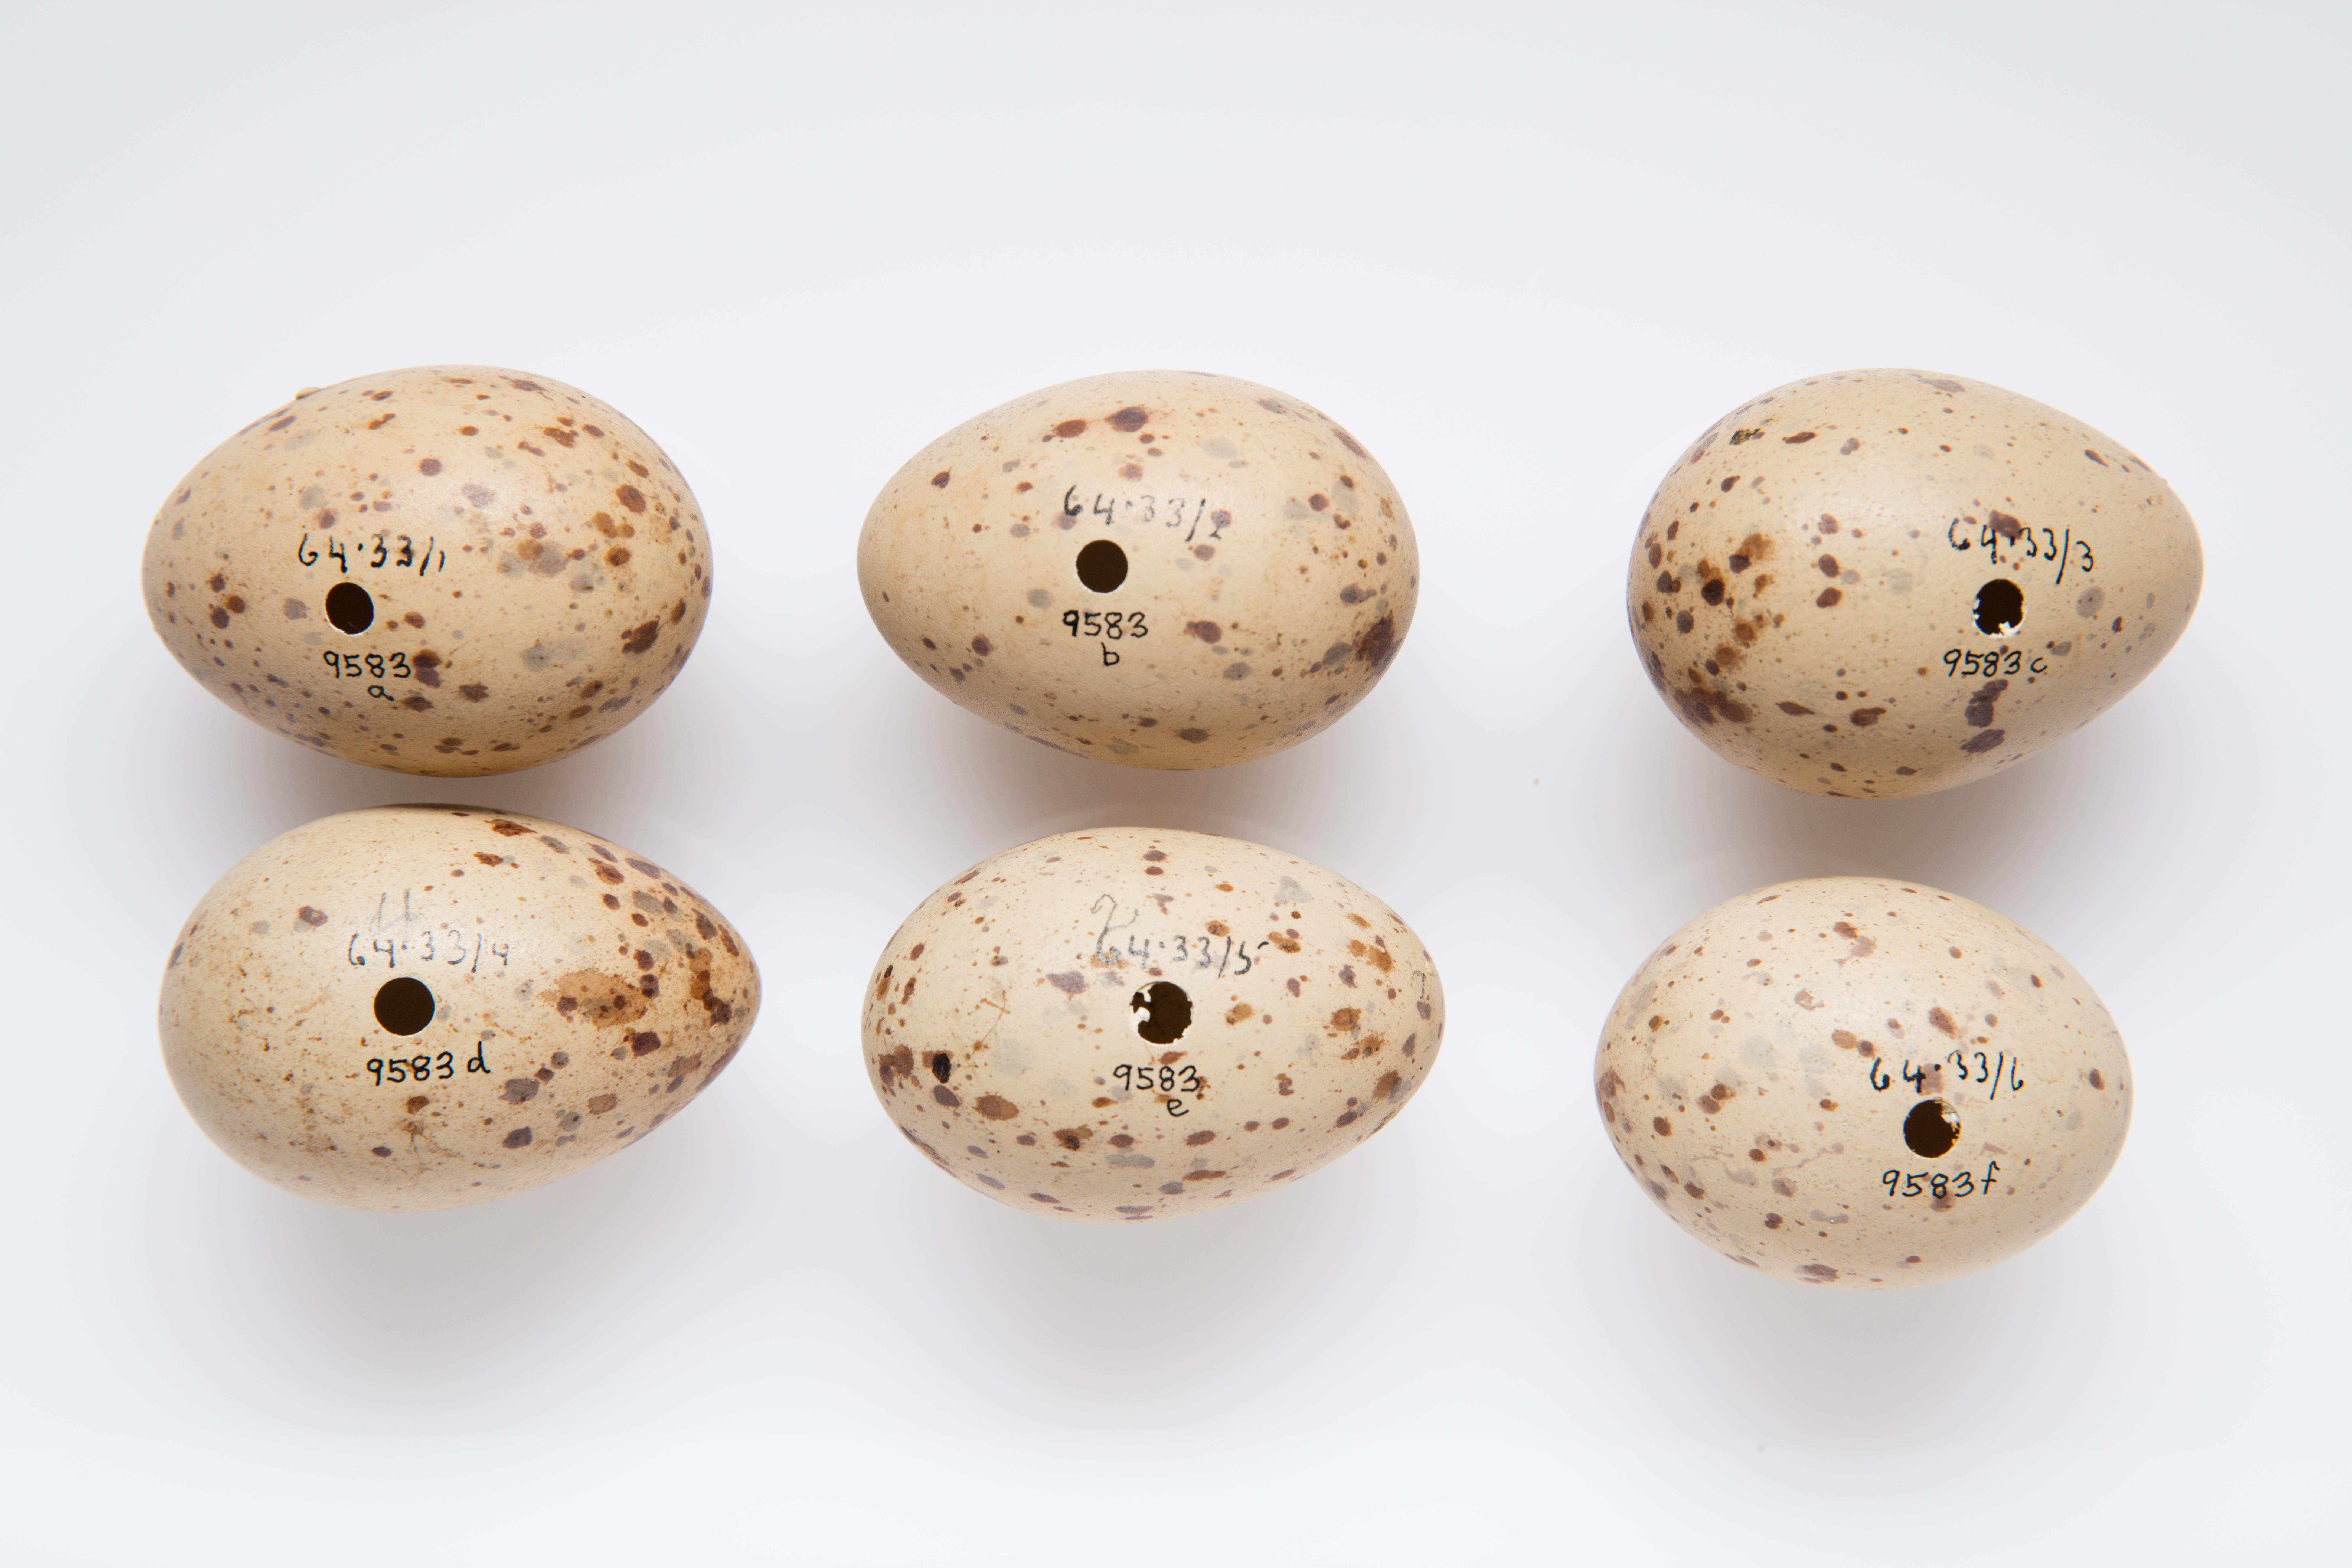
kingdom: Animalia
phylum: Chordata
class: Aves
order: Gruiformes
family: Rallidae
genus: Porphyrio
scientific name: Porphyrio melanotus
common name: Australasian swamphen
